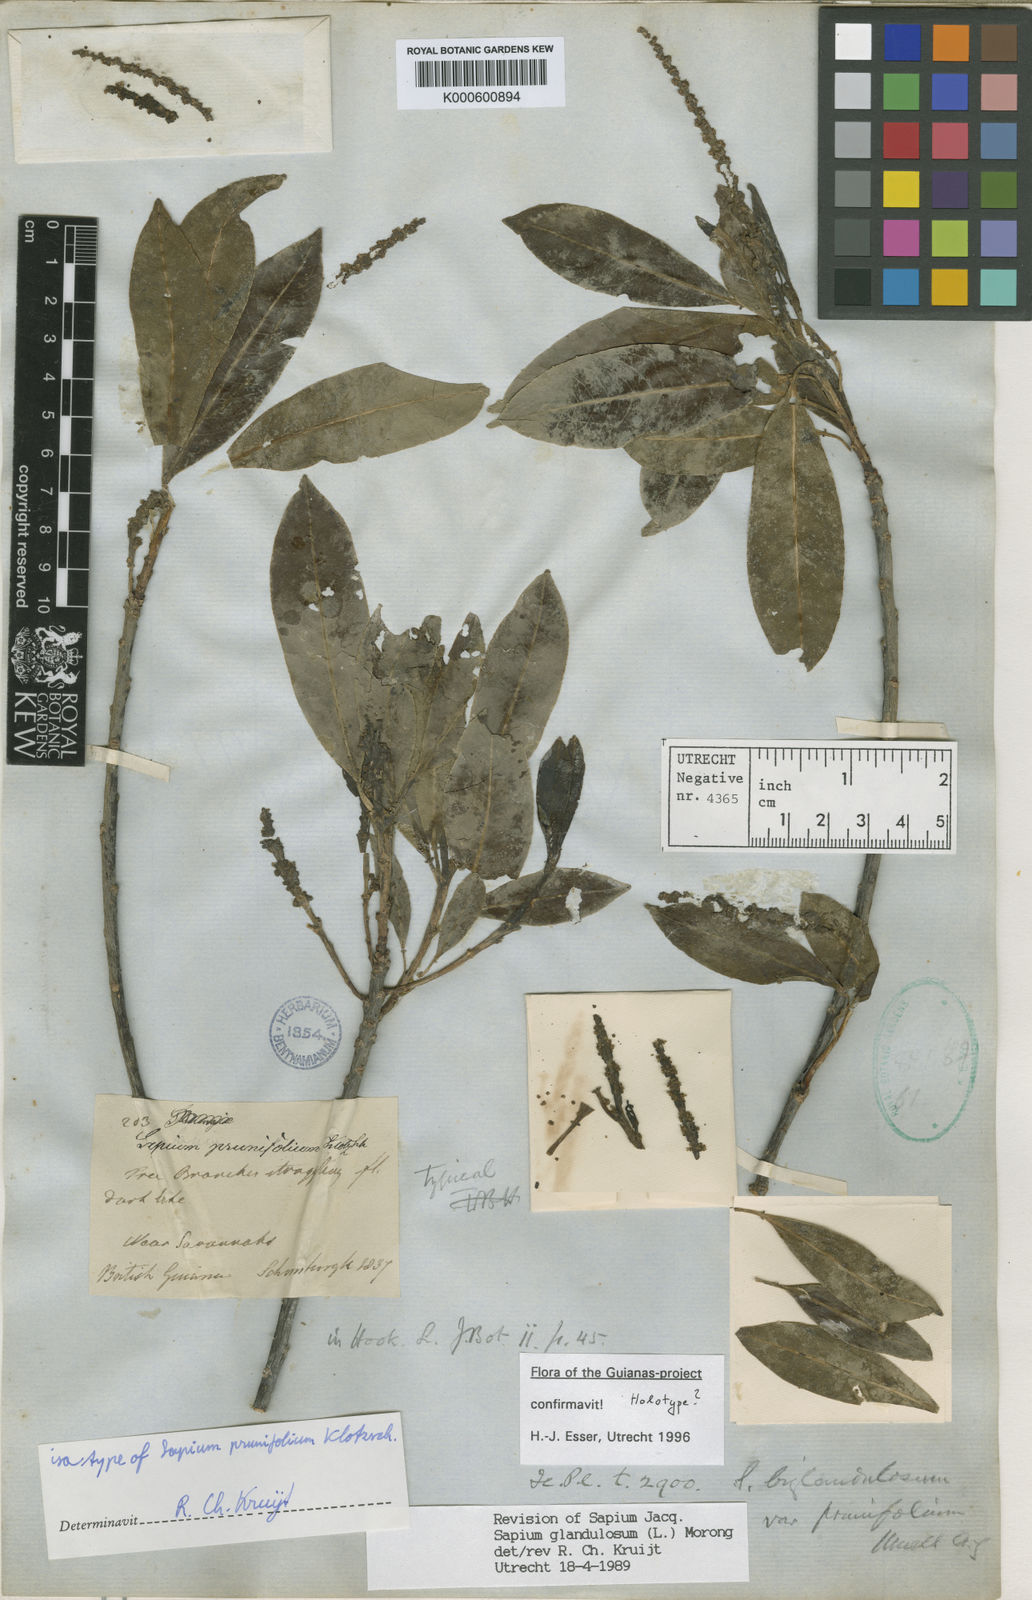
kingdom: Plantae
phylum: Tracheophyta
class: Magnoliopsida
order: Malpighiales
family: Euphorbiaceae
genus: Sapium
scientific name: Sapium glandulosum
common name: Milktree
